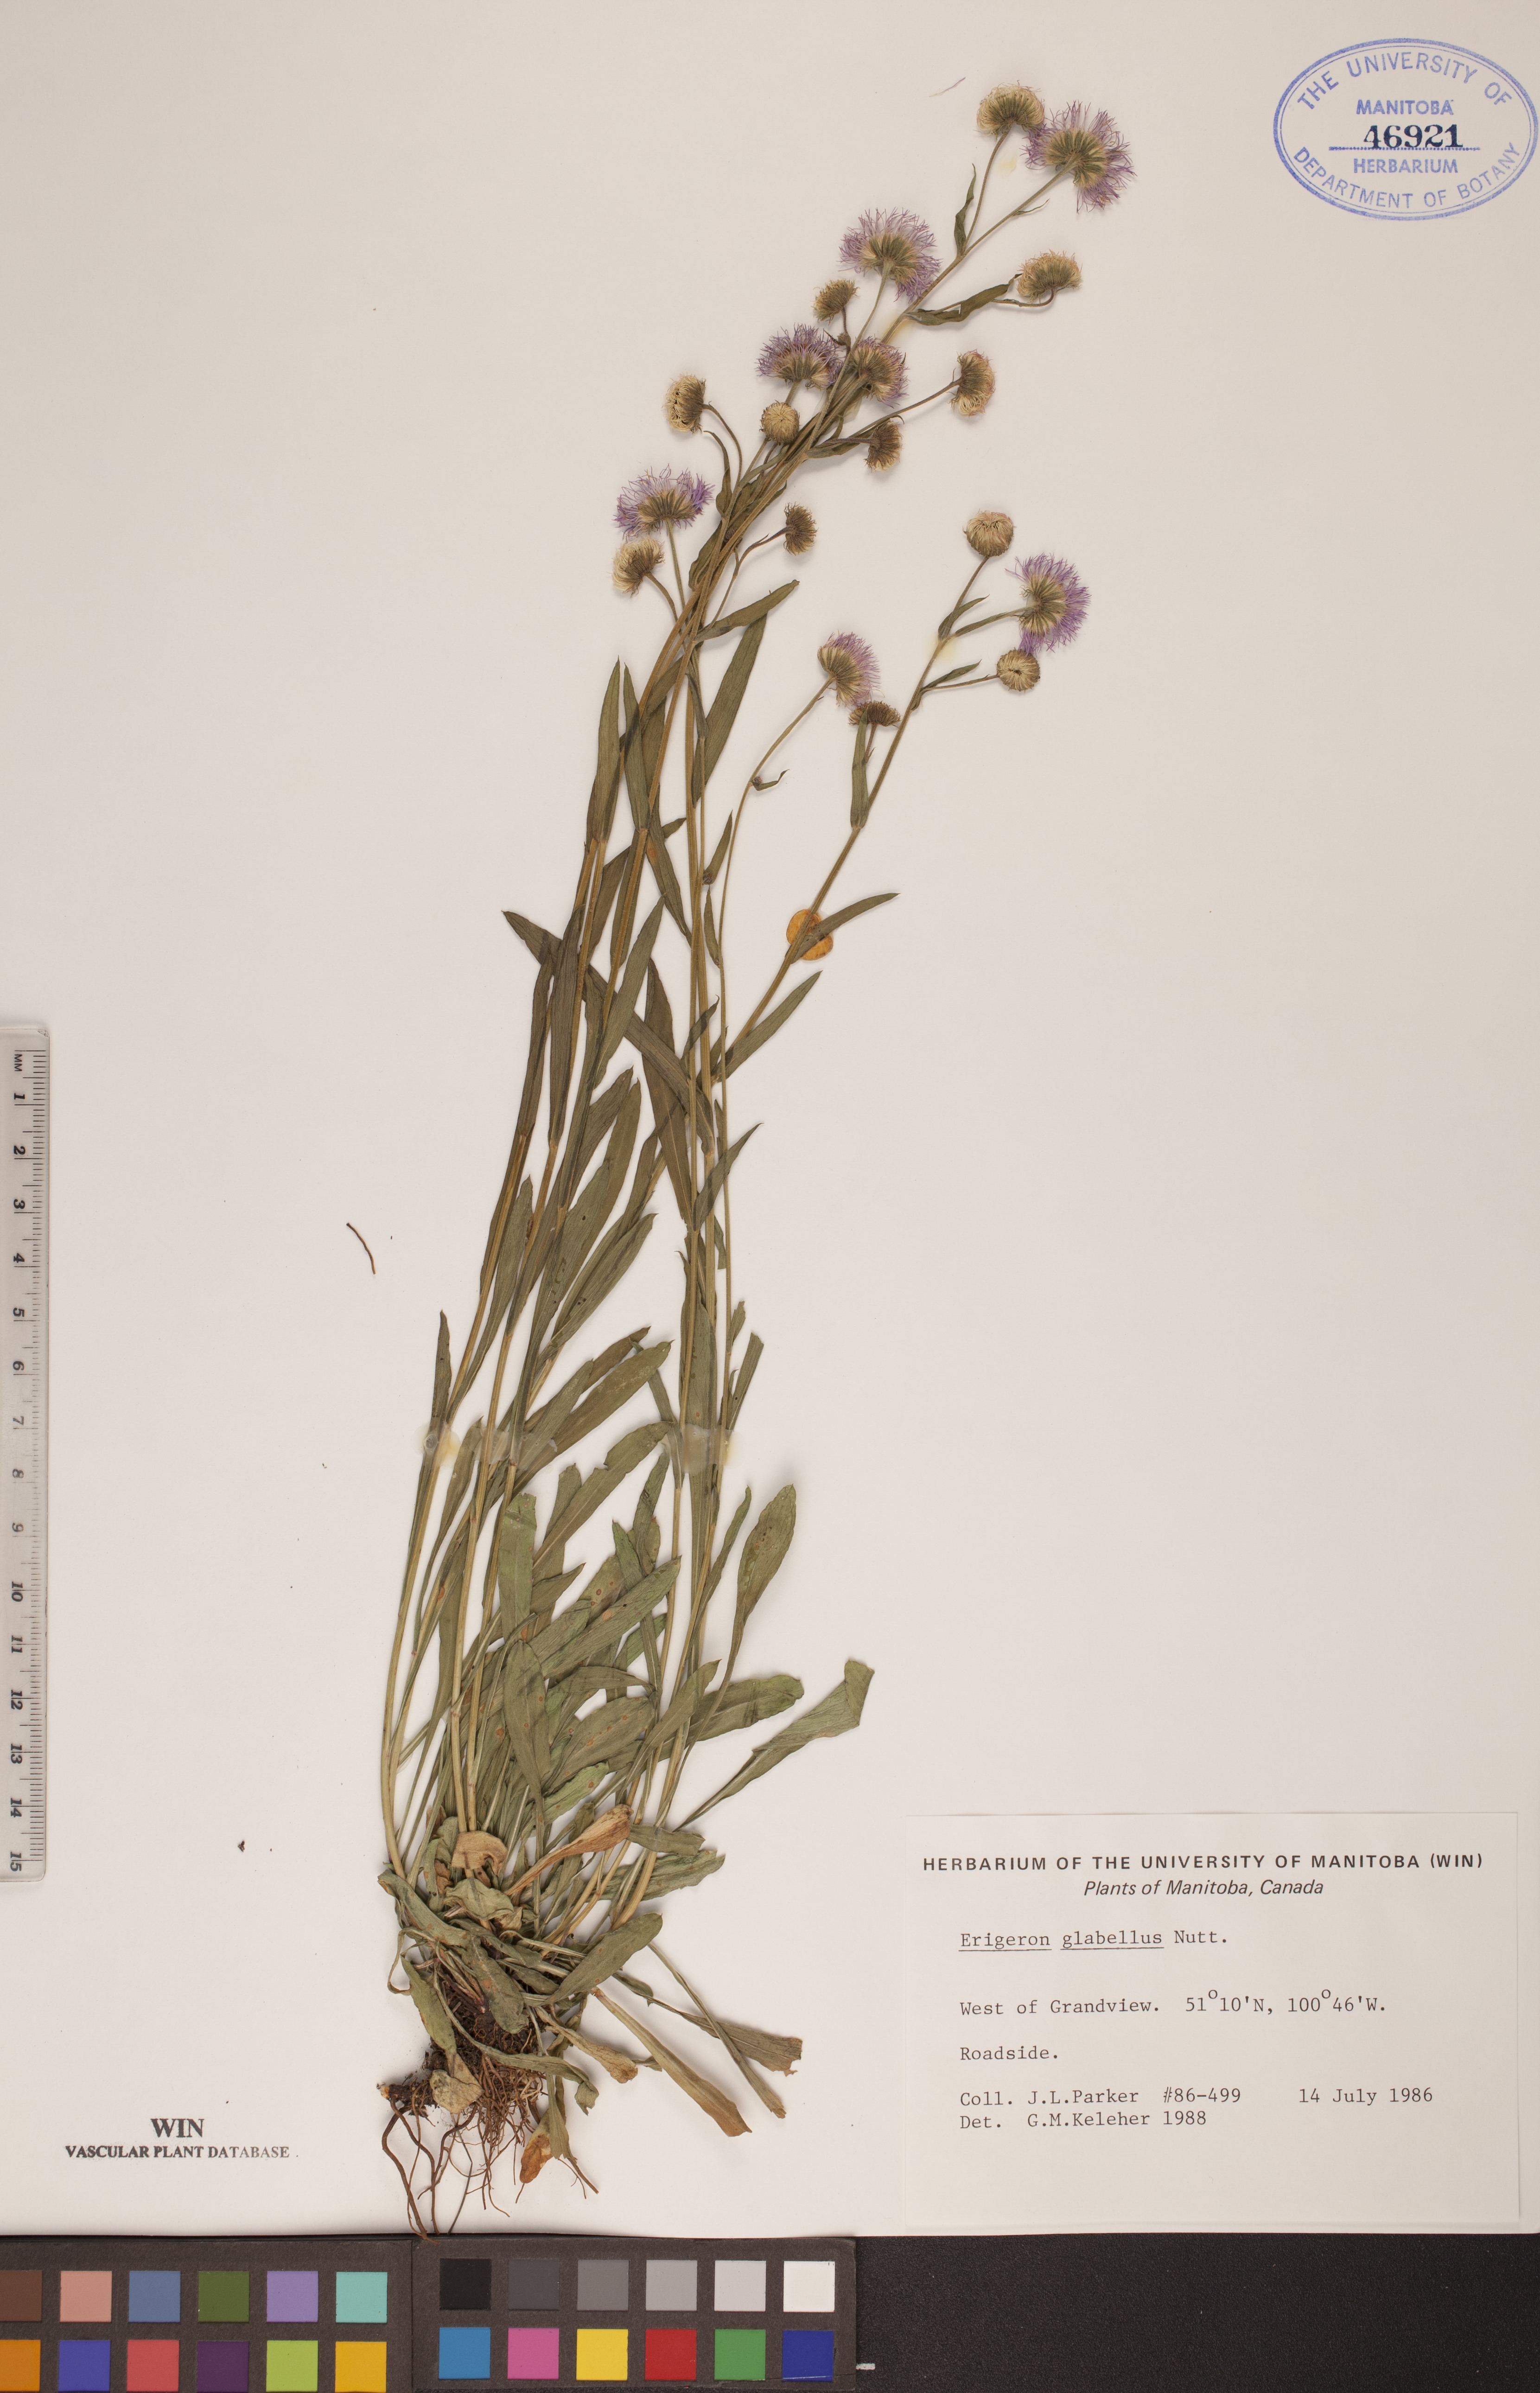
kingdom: Plantae
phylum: Tracheophyta
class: Magnoliopsida
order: Asterales
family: Asteraceae
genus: Erigeron
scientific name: Erigeron glabellus
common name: Smooth fleabane
